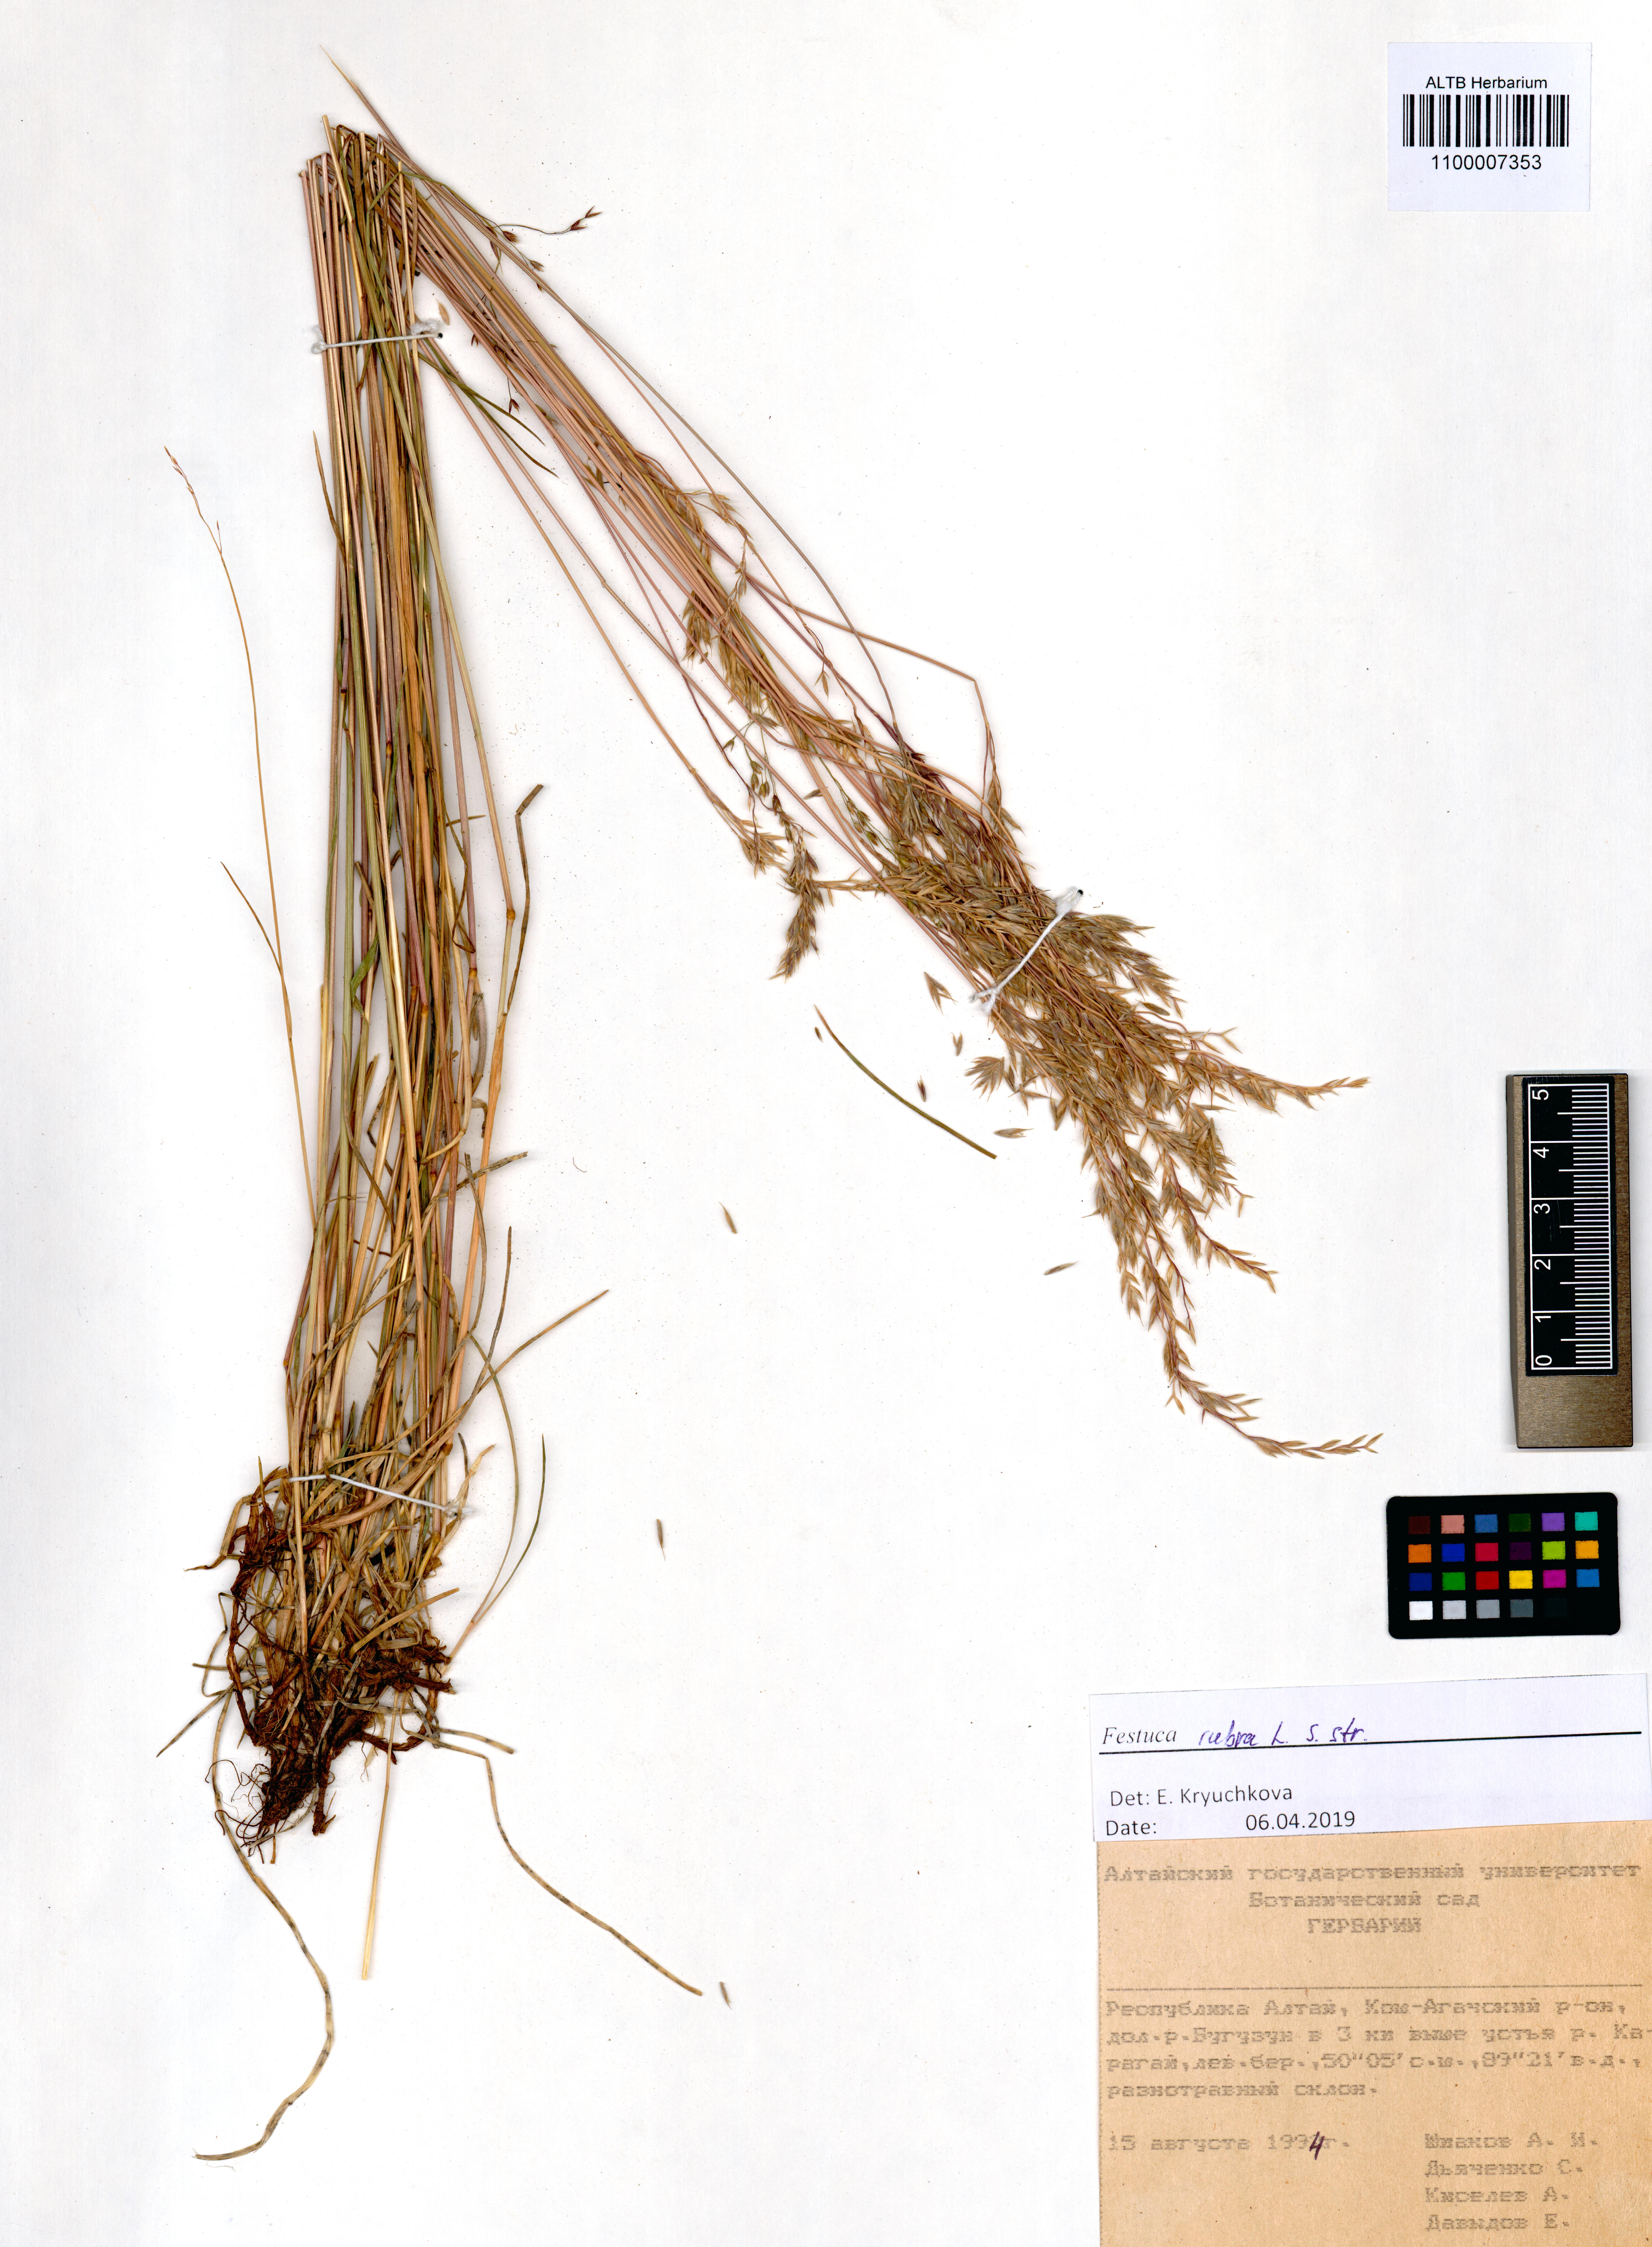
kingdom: Plantae
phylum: Tracheophyta
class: Liliopsida
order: Poales
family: Poaceae
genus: Festuca
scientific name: Festuca rubra
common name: Red fescue
